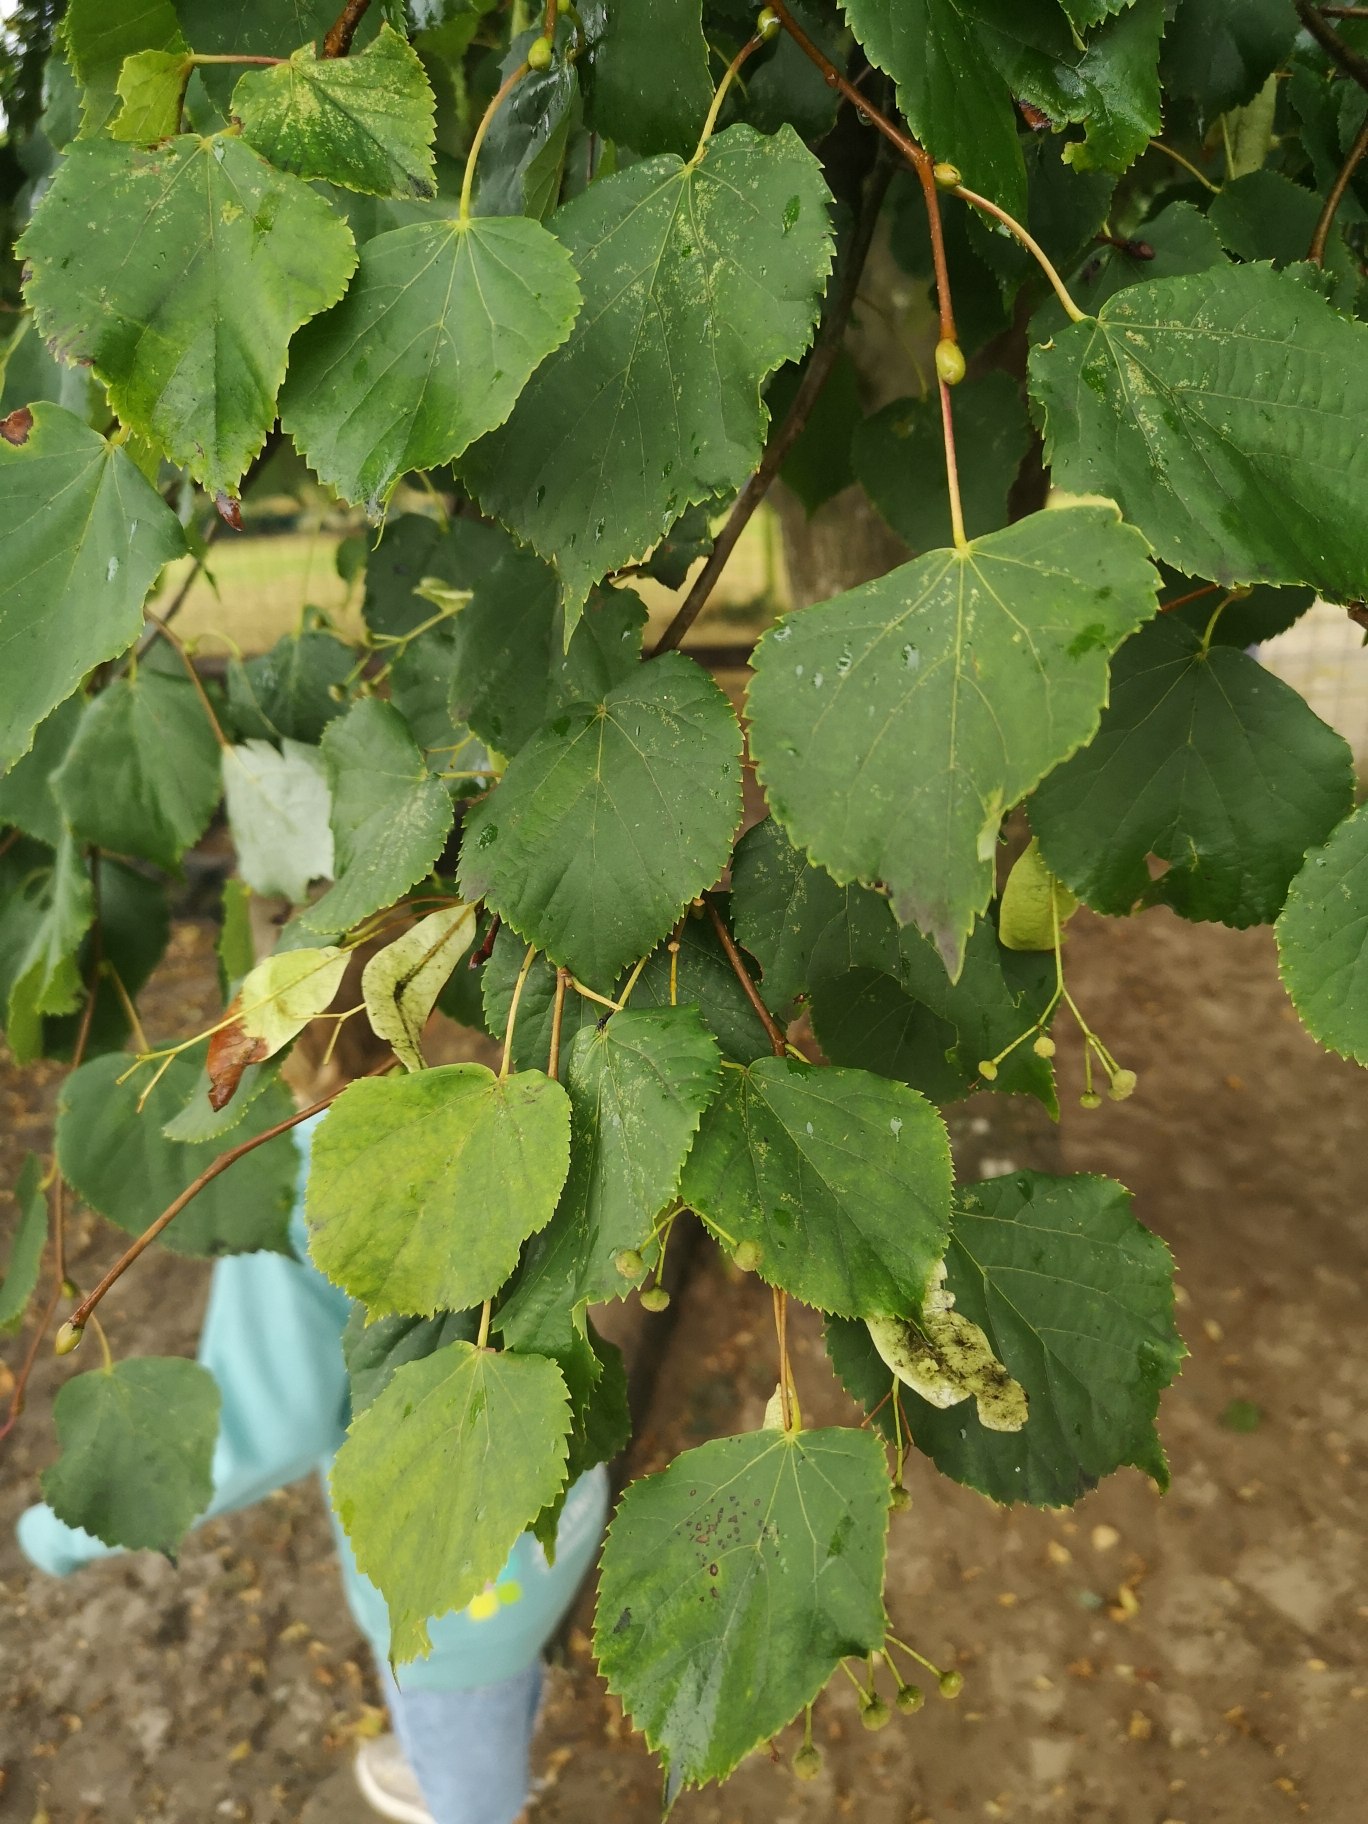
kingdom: Plantae
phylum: Tracheophyta
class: Magnoliopsida
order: Malvales
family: Malvaceae
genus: Tilia
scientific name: Tilia cordata
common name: Småbladet lind
